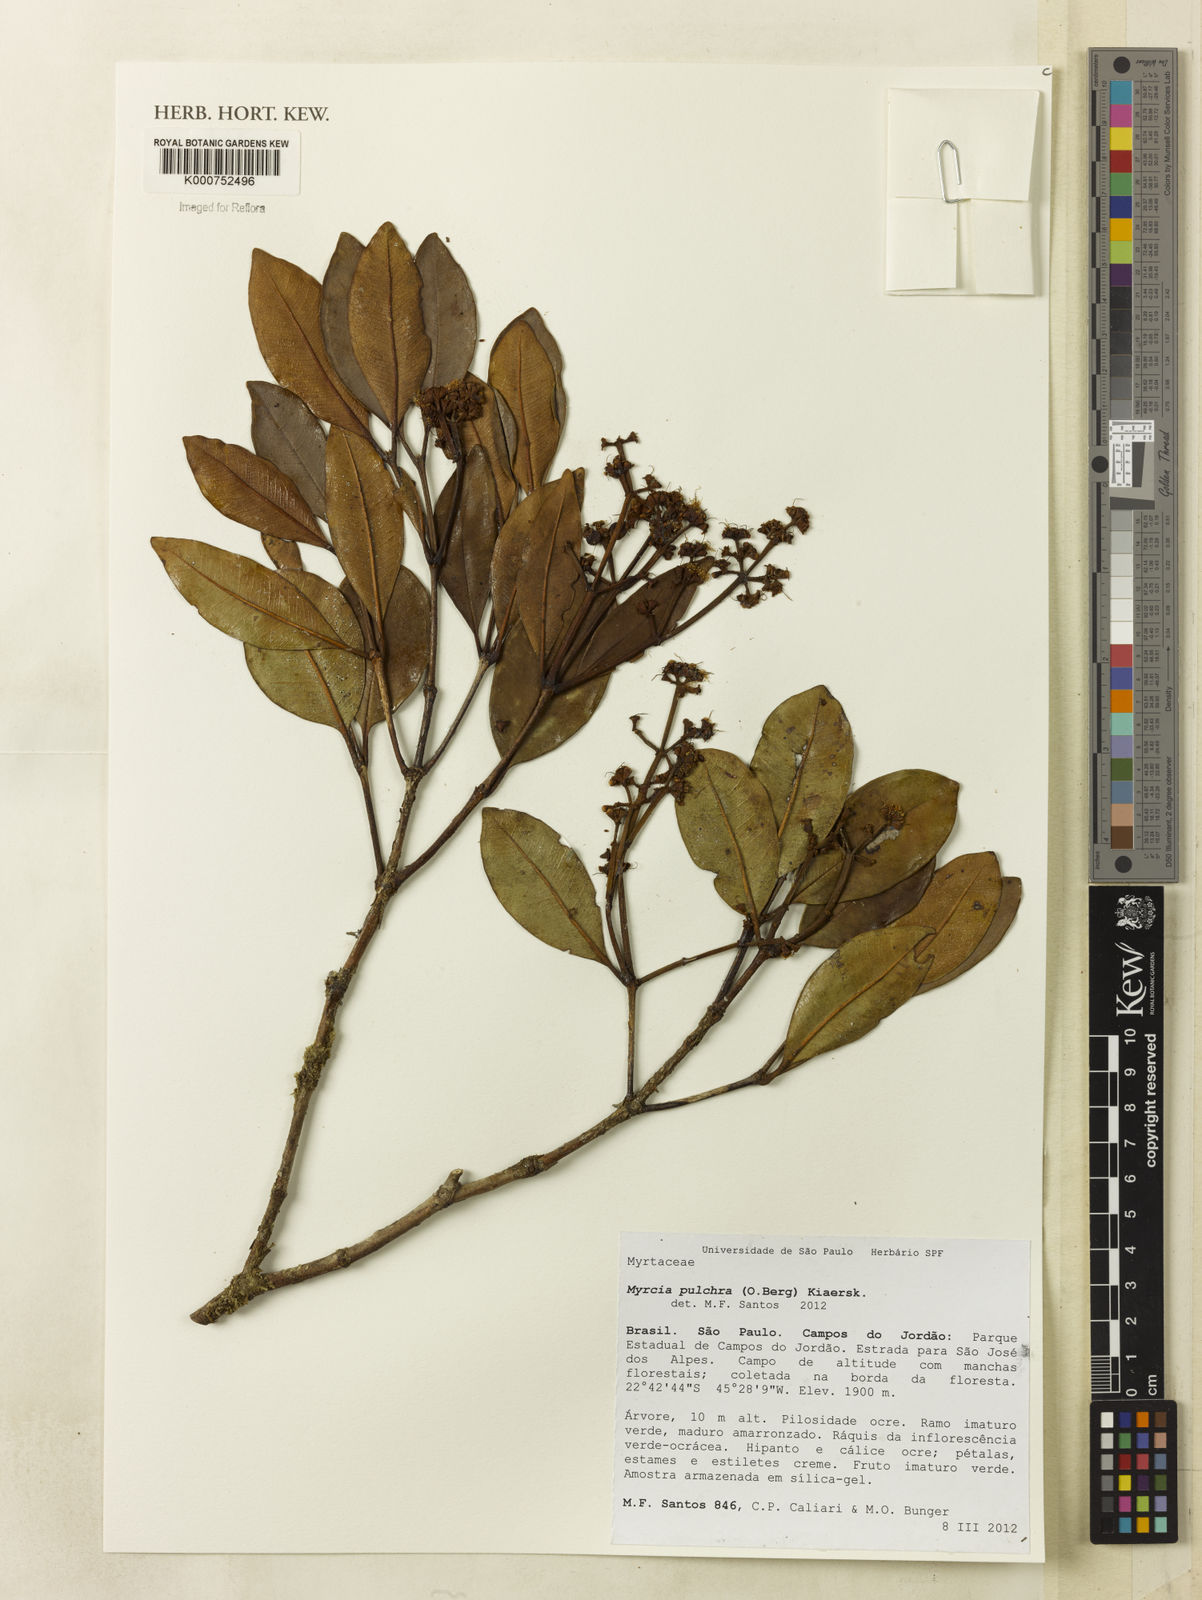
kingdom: Plantae
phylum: Tracheophyta
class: Magnoliopsida
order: Myrtales
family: Myrtaceae
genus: Myrcia
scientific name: Myrcia pulchra
